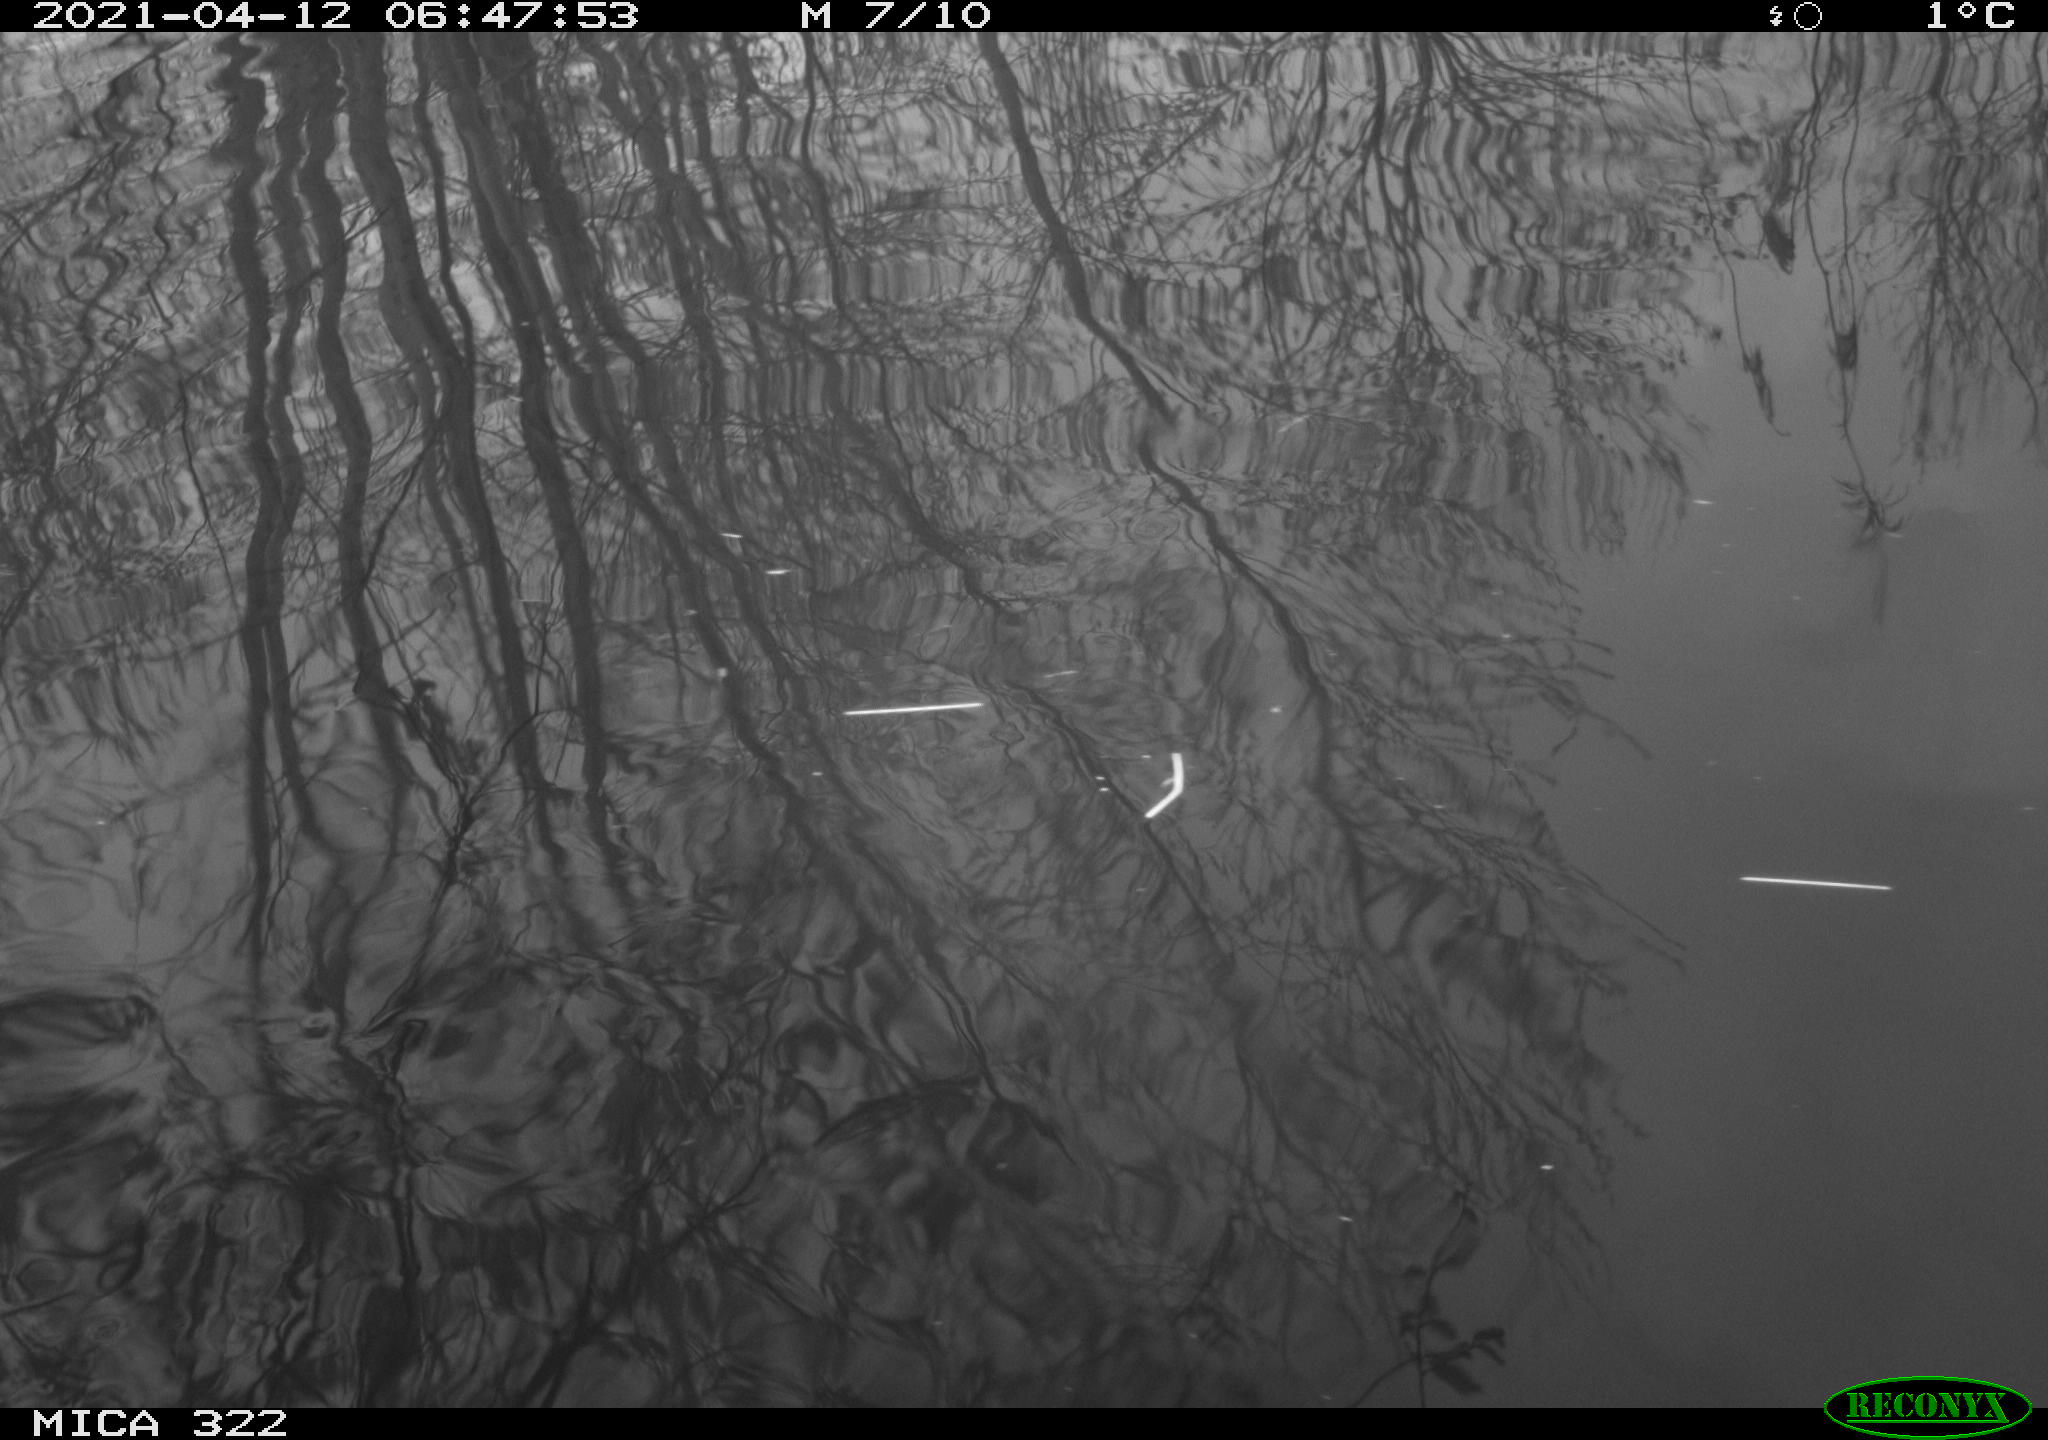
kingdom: Animalia
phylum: Chordata
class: Aves
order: Gruiformes
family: Rallidae
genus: Fulica
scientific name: Fulica atra
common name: Eurasian coot
